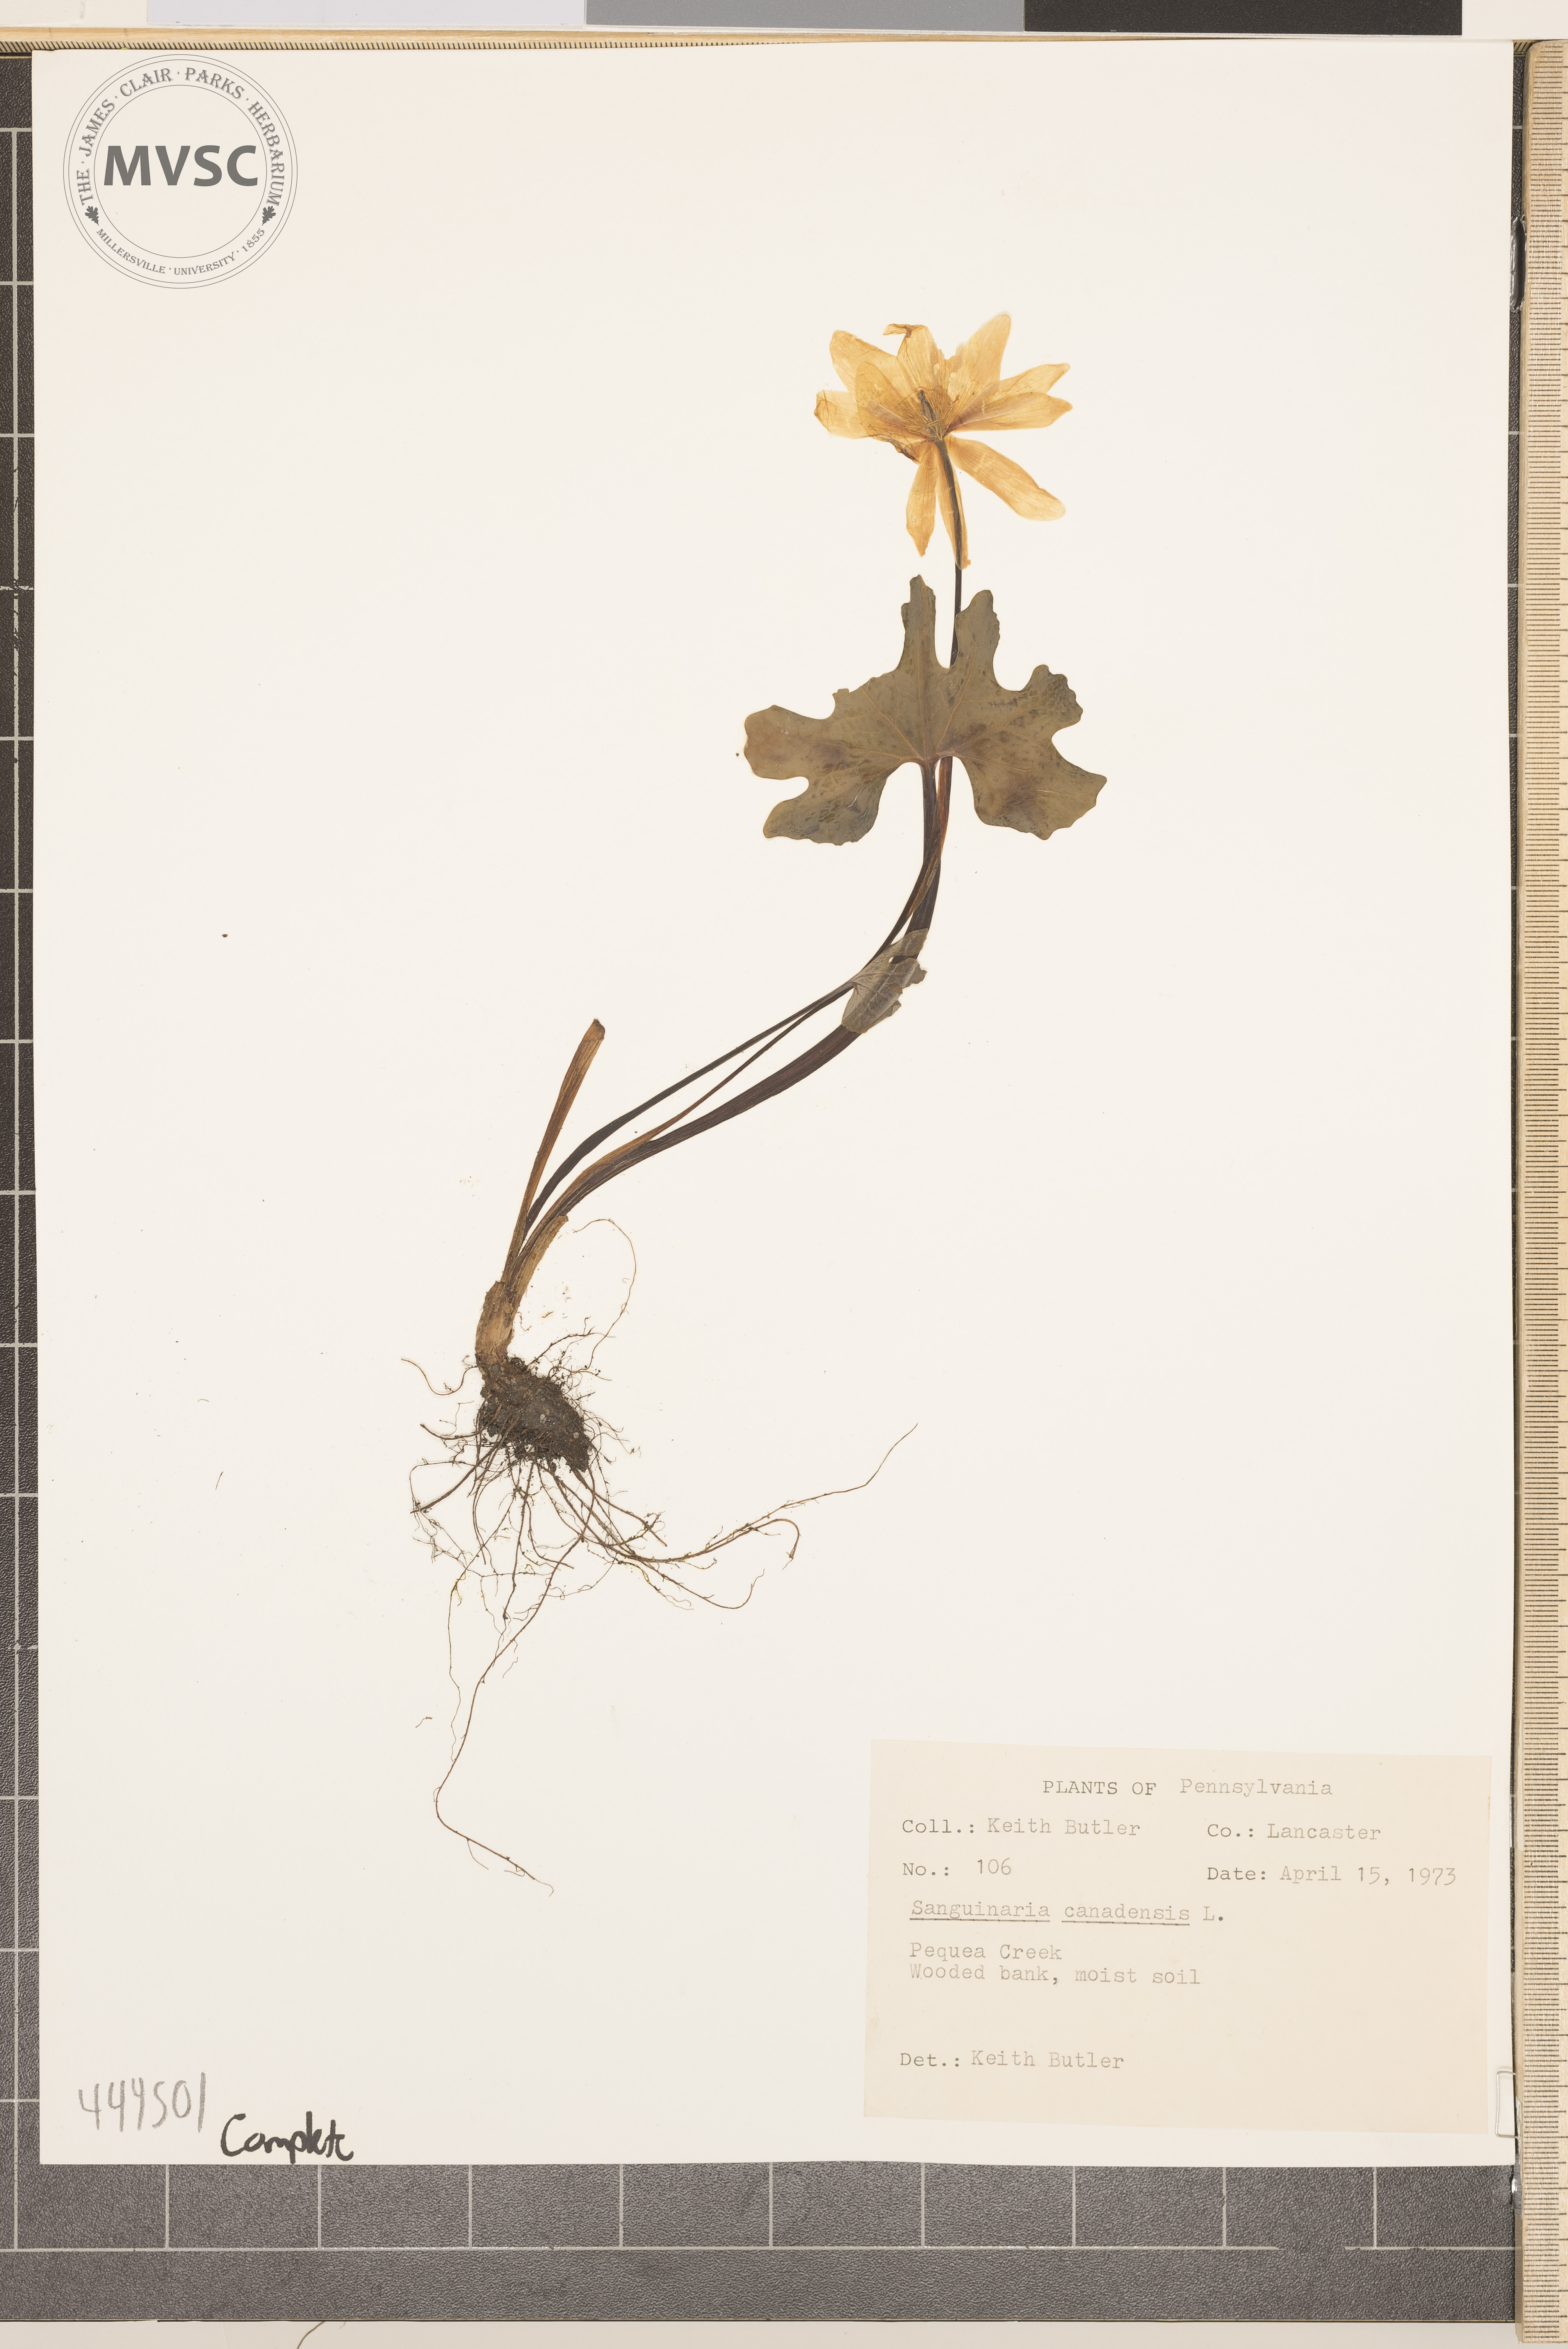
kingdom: Plantae
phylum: Tracheophyta
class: Magnoliopsida
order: Ranunculales
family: Papaveraceae
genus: Sanguinaria
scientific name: Sanguinaria canadensis
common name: Bloodroot
